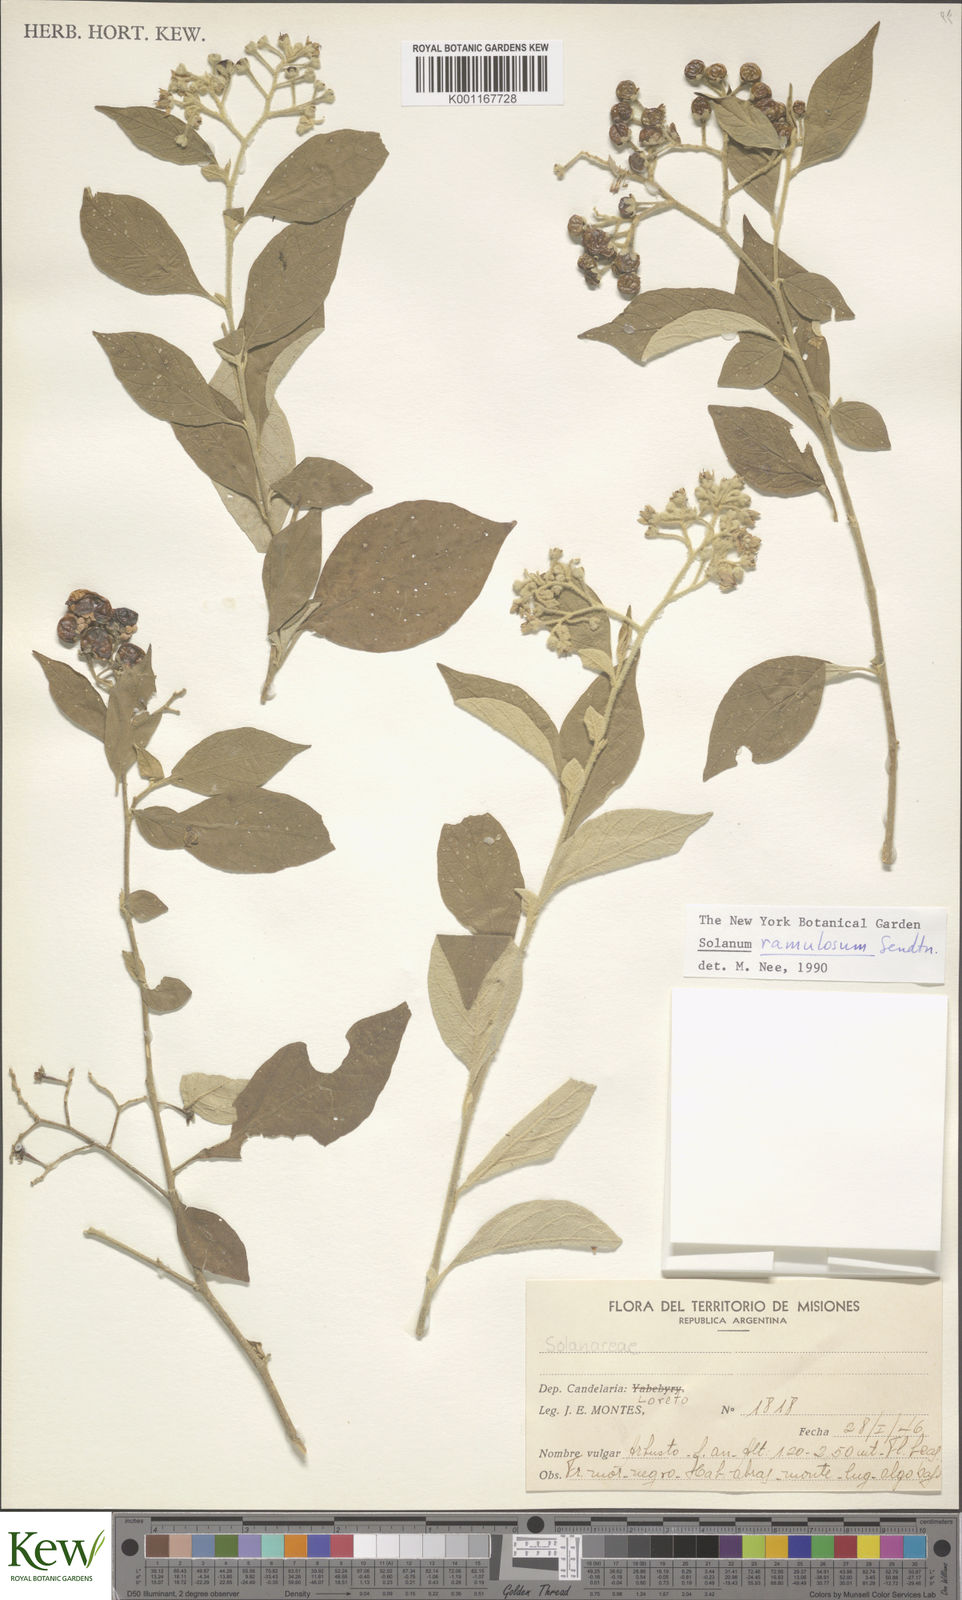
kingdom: Plantae
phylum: Tracheophyta
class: Magnoliopsida
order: Solanales
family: Solanaceae
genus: Solanum
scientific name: Solanum ramulosum
